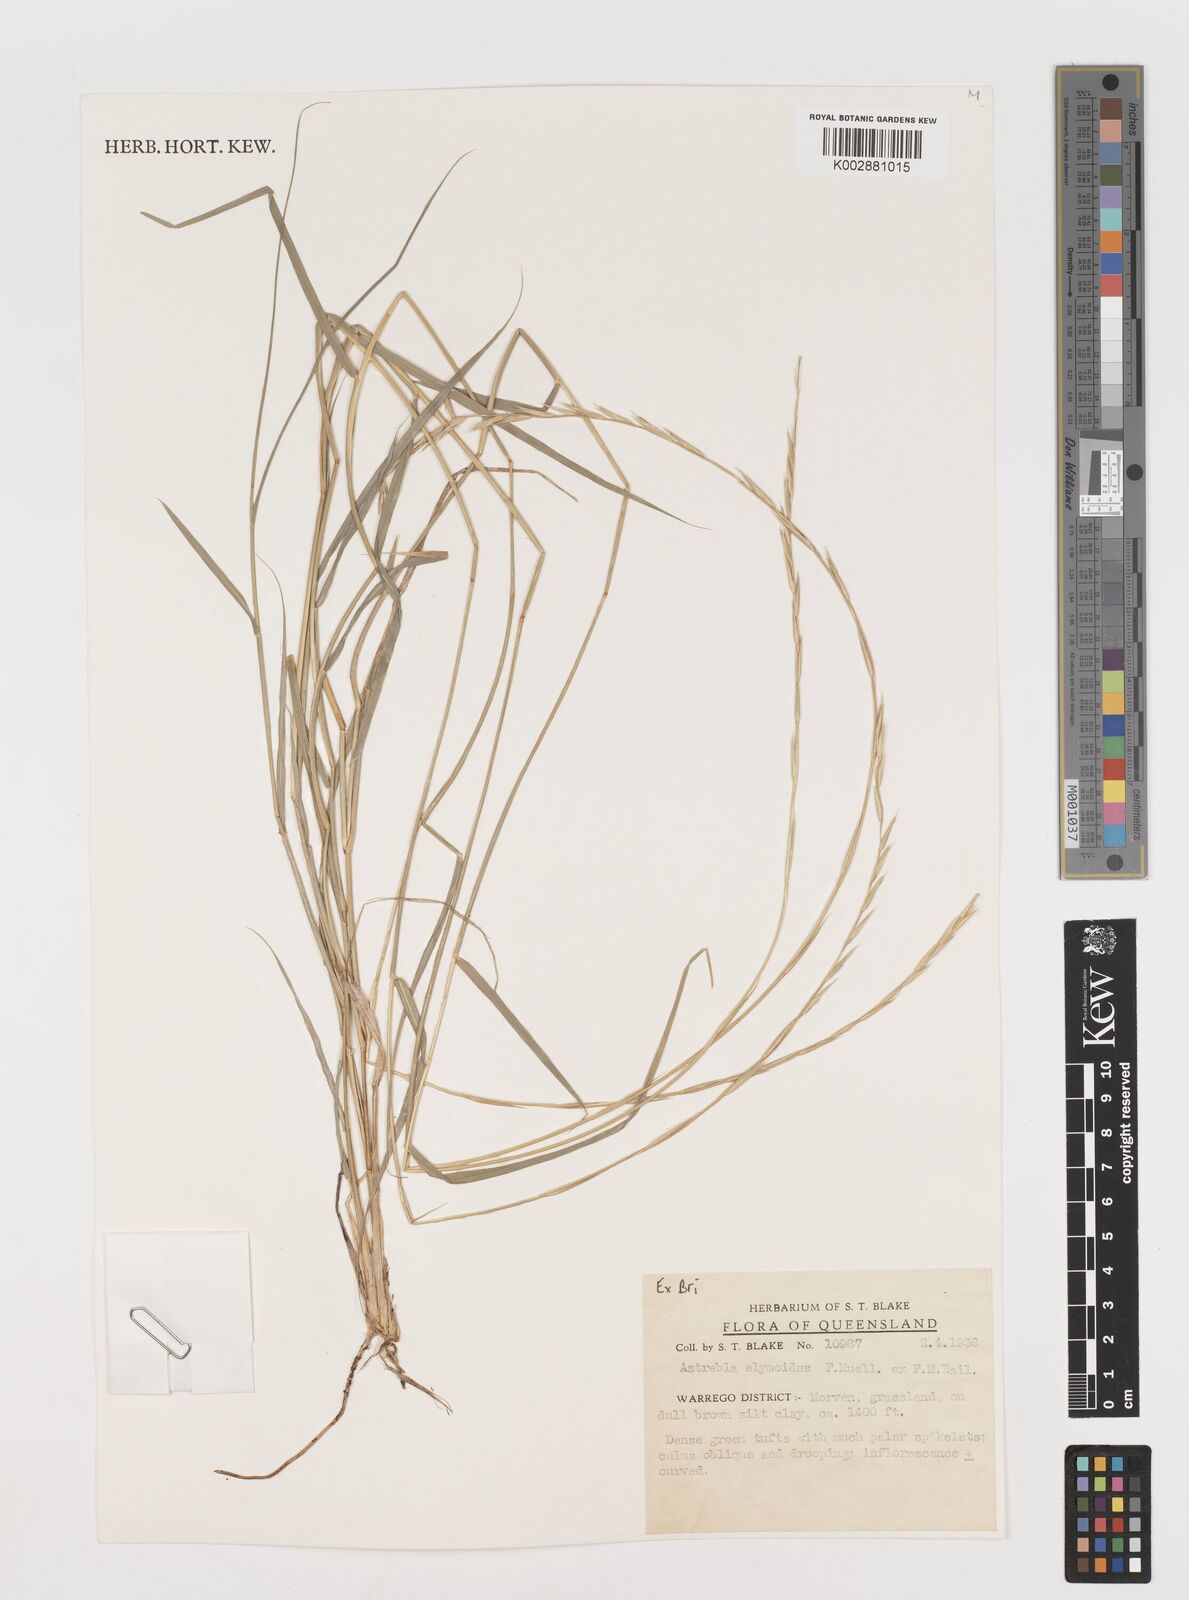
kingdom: Plantae
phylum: Tracheophyta
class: Liliopsida
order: Poales
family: Poaceae
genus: Astrebla
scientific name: Astrebla elymoides
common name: Hoop mitchell grass
